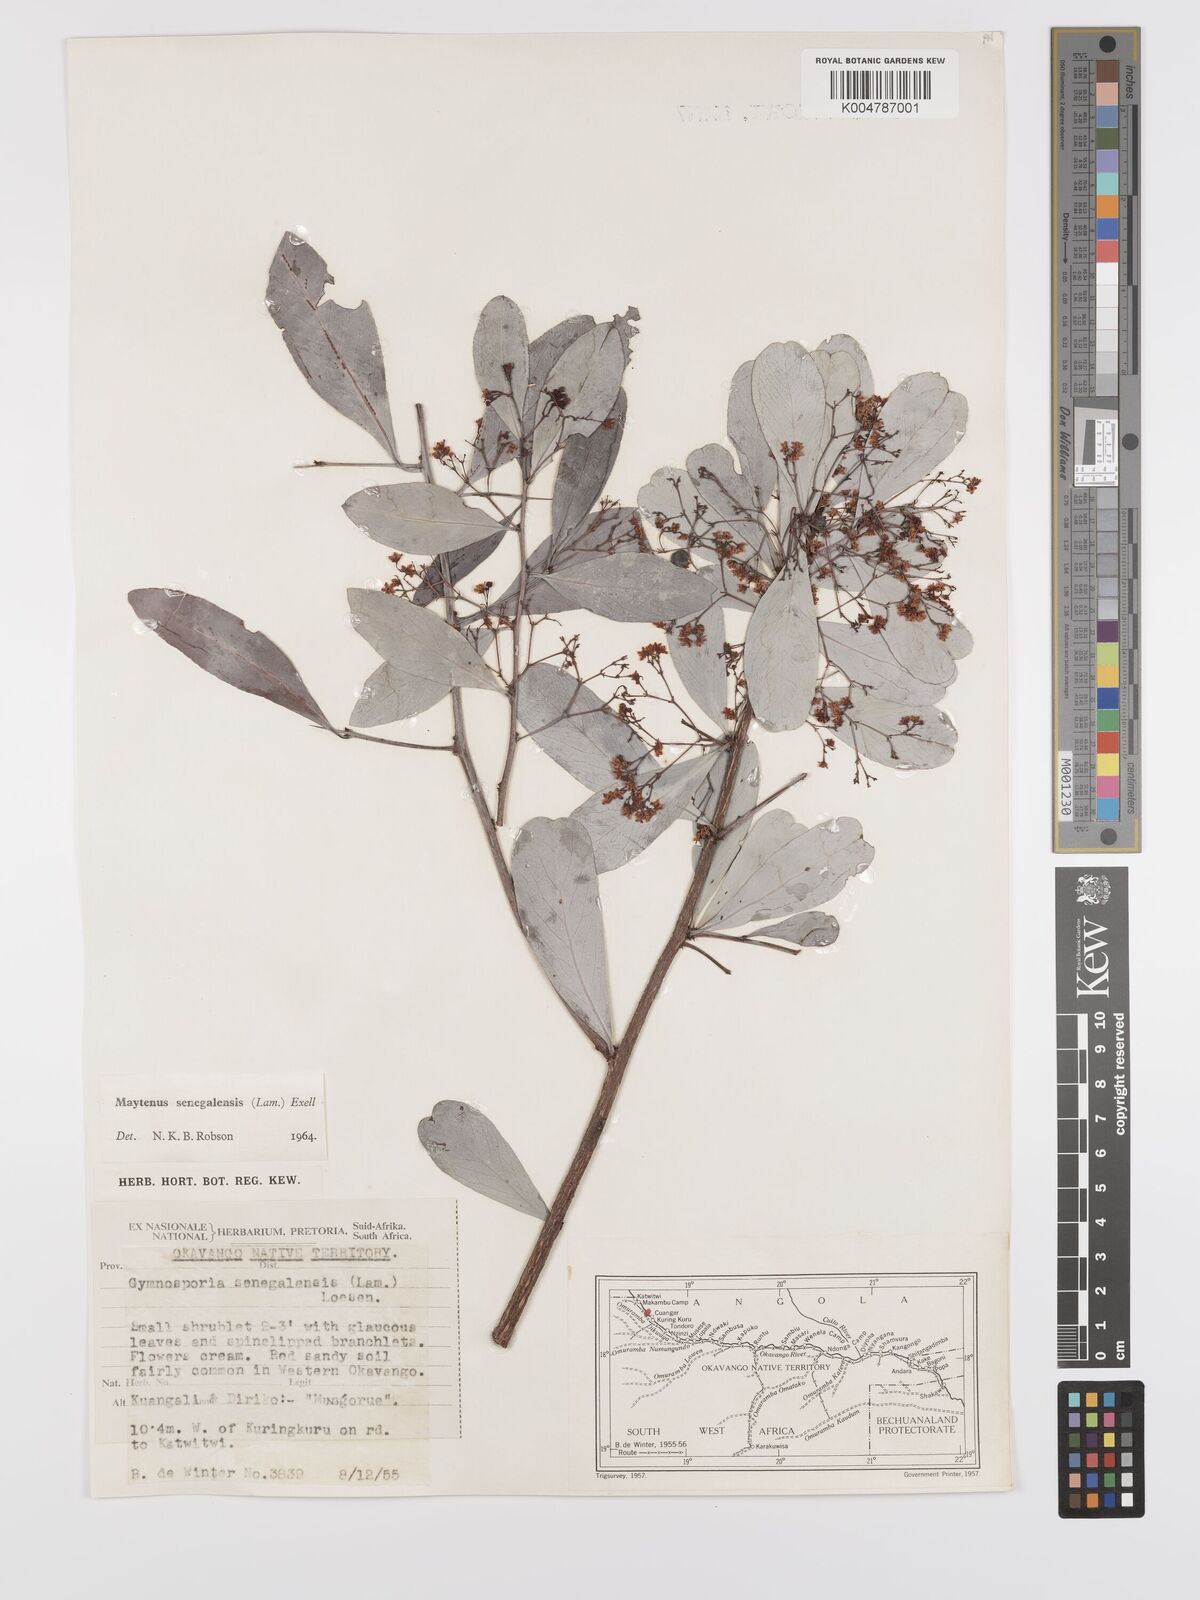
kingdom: Plantae
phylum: Tracheophyta
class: Magnoliopsida
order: Celastrales
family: Celastraceae
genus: Gymnosporia
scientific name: Gymnosporia senegalensis
